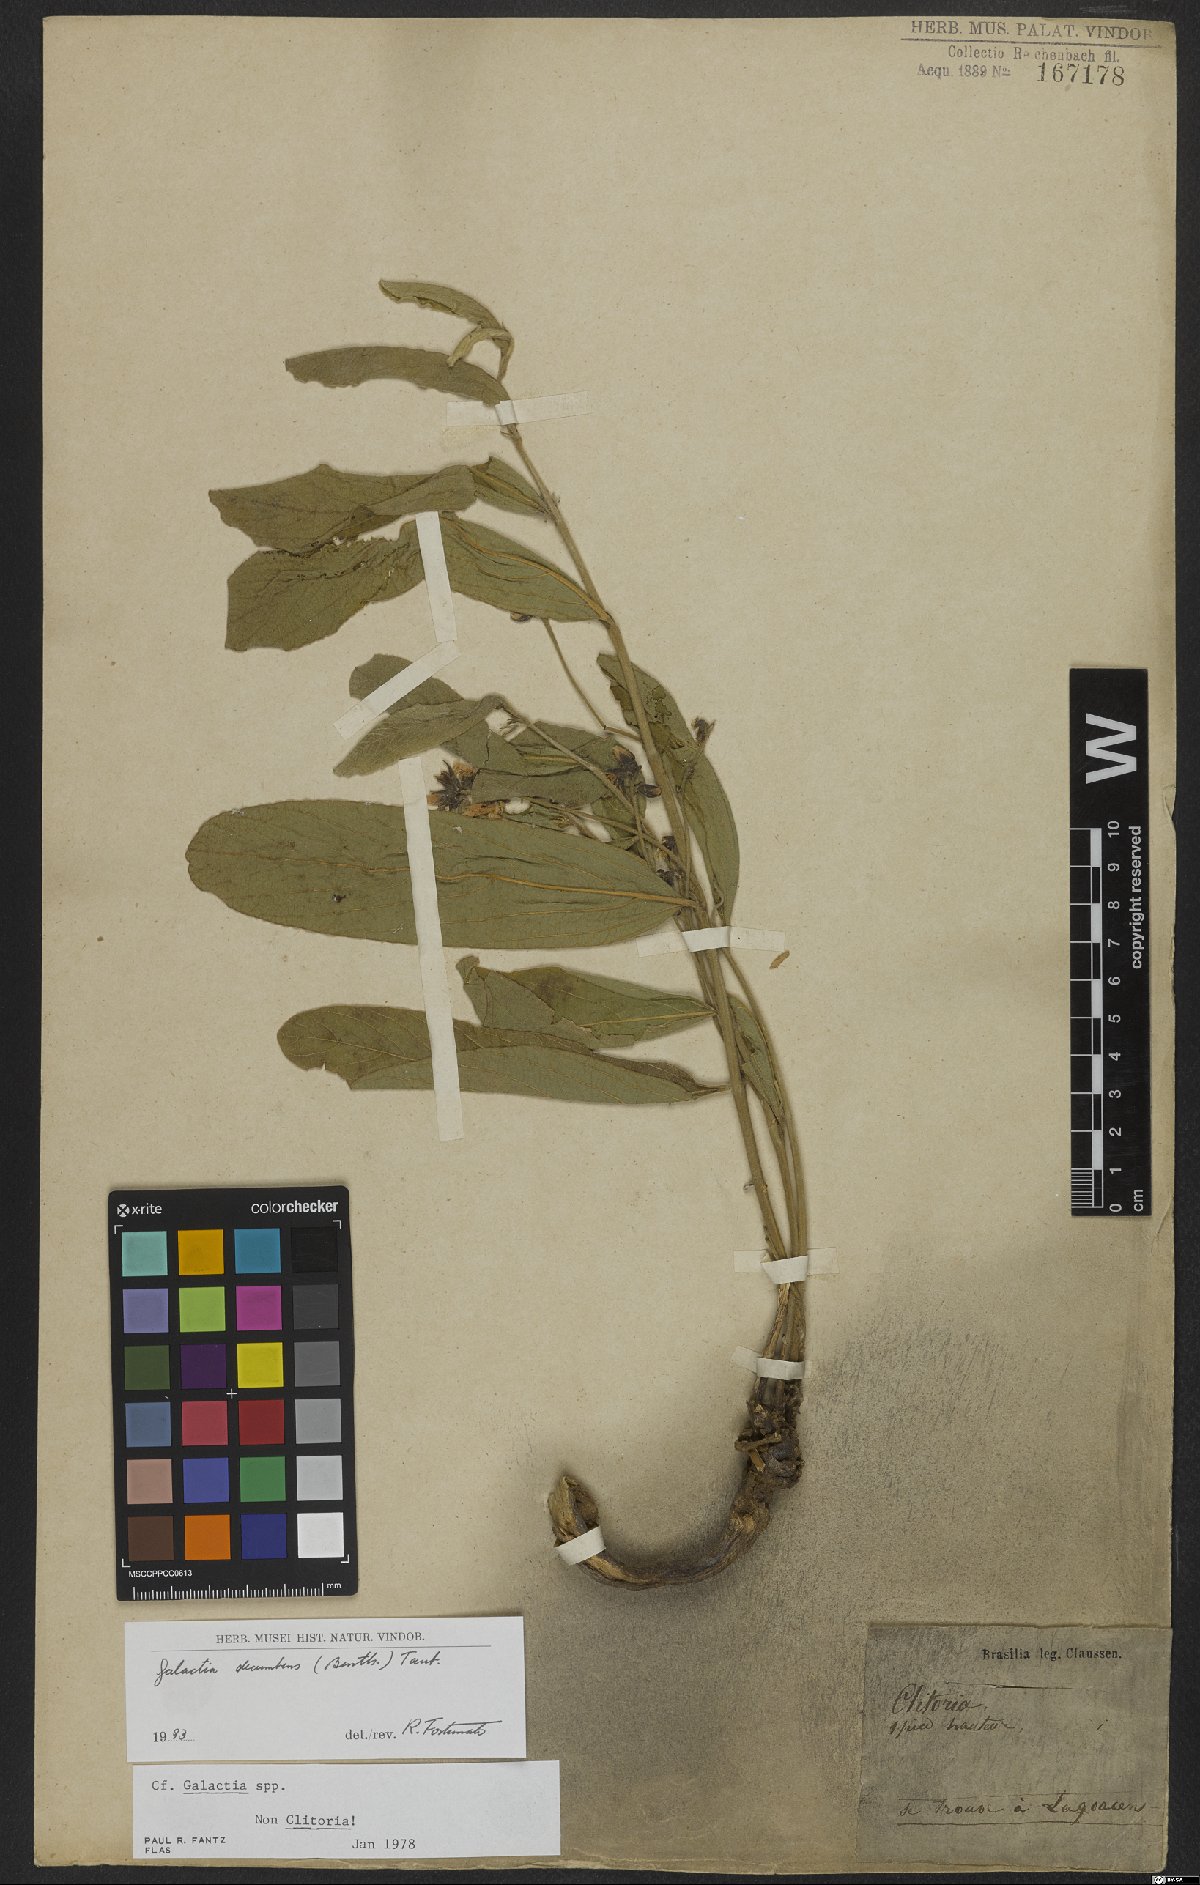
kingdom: Plantae
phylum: Tracheophyta
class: Magnoliopsida
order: Fabales
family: Fabaceae
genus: Cerradicola
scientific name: Cerradicola decumbens
